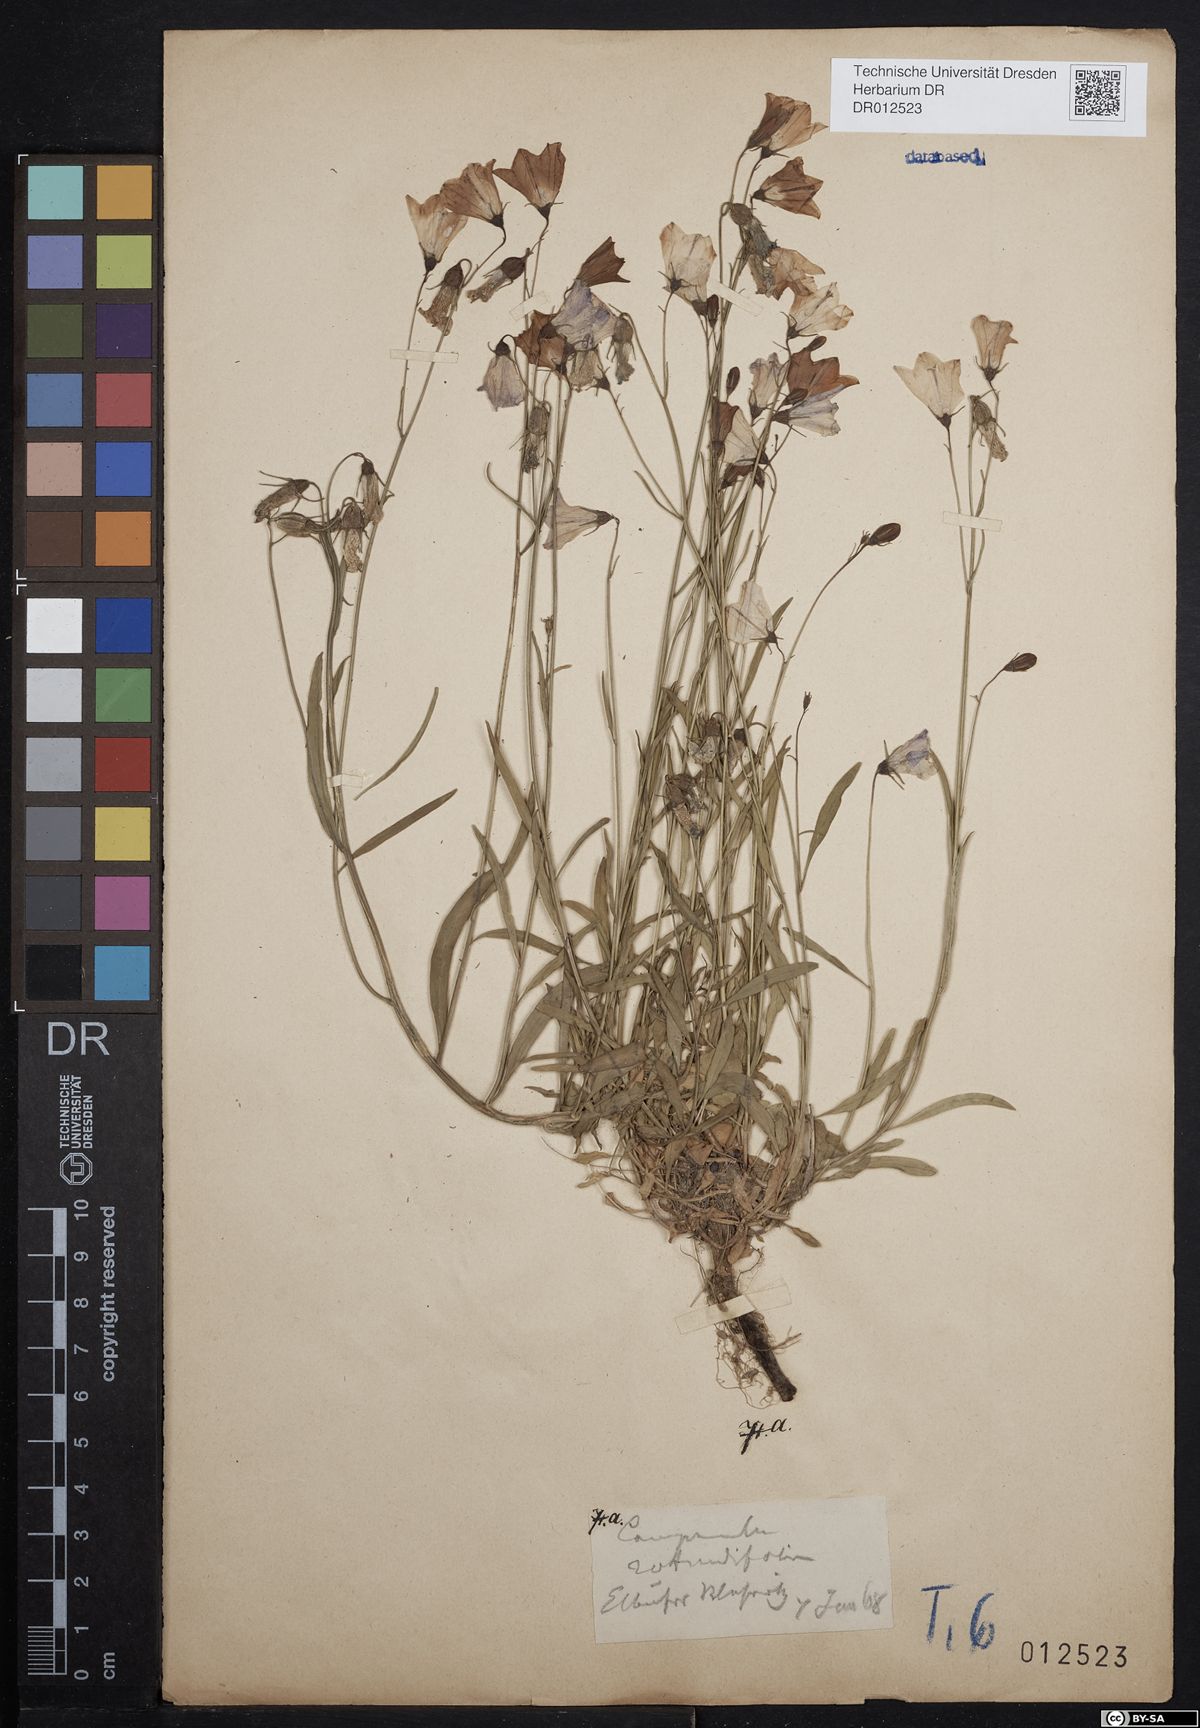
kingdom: Plantae
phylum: Tracheophyta
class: Magnoliopsida
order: Asterales
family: Campanulaceae
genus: Campanula
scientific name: Campanula rotundifolia
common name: Harebell
